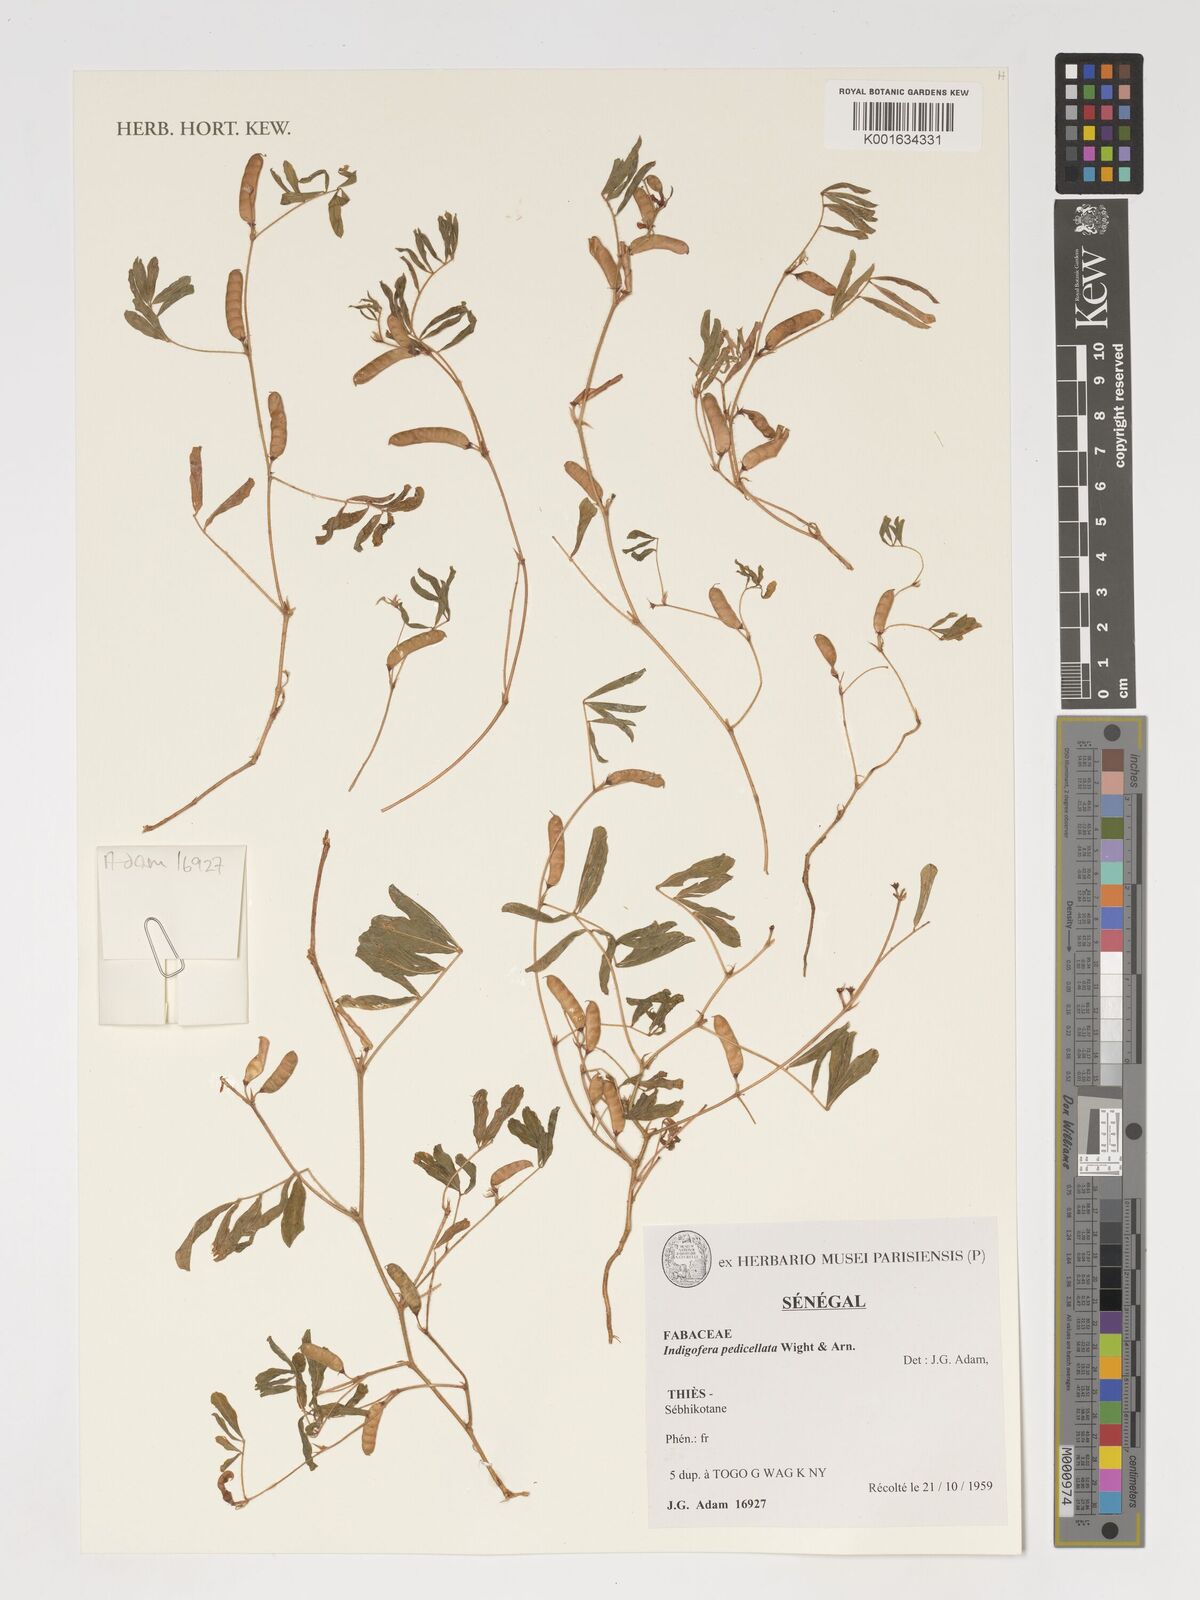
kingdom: Plantae
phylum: Tracheophyta
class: Magnoliopsida
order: Fabales
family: Fabaceae
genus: Tephrosia
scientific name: Tephrosia pedicellata
